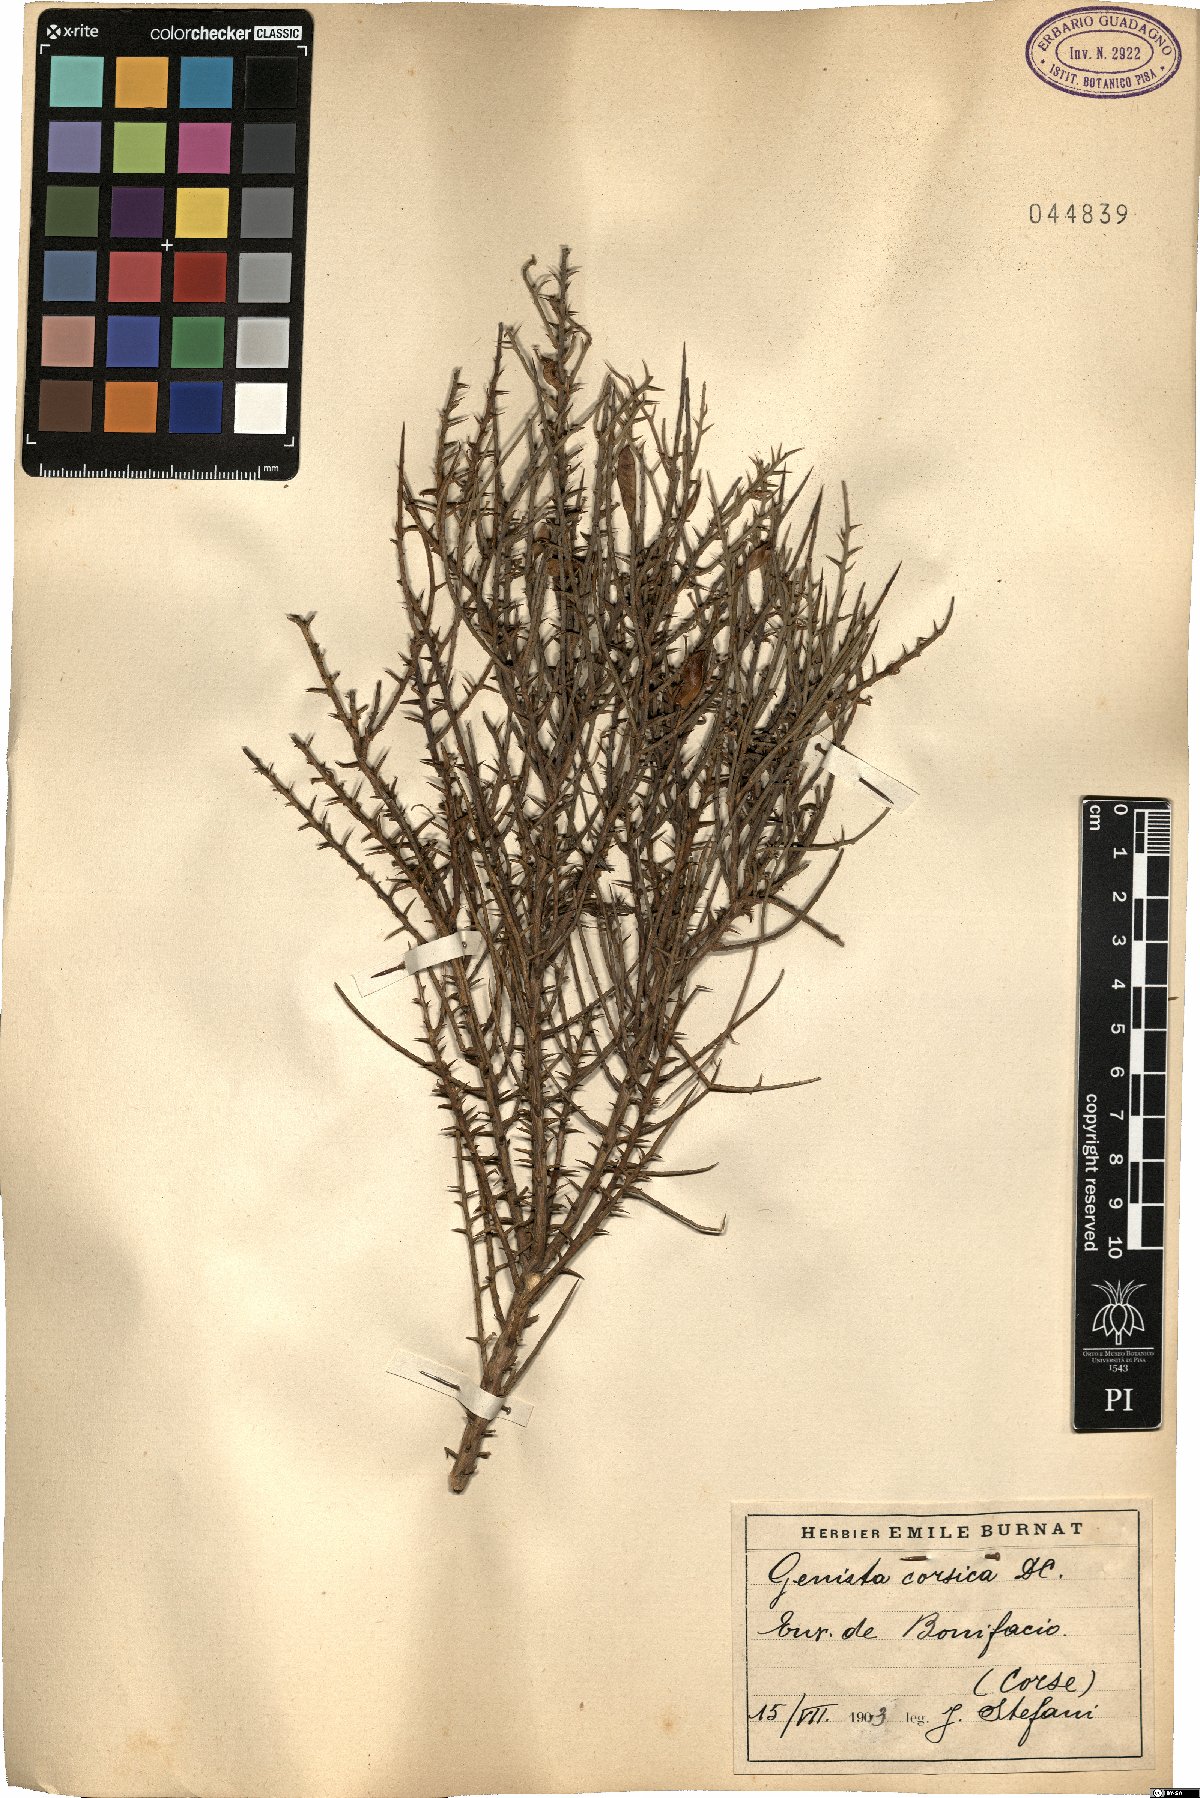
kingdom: Plantae
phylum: Tracheophyta
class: Magnoliopsida
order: Fabales
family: Fabaceae
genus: Genista
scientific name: Genista corsica
